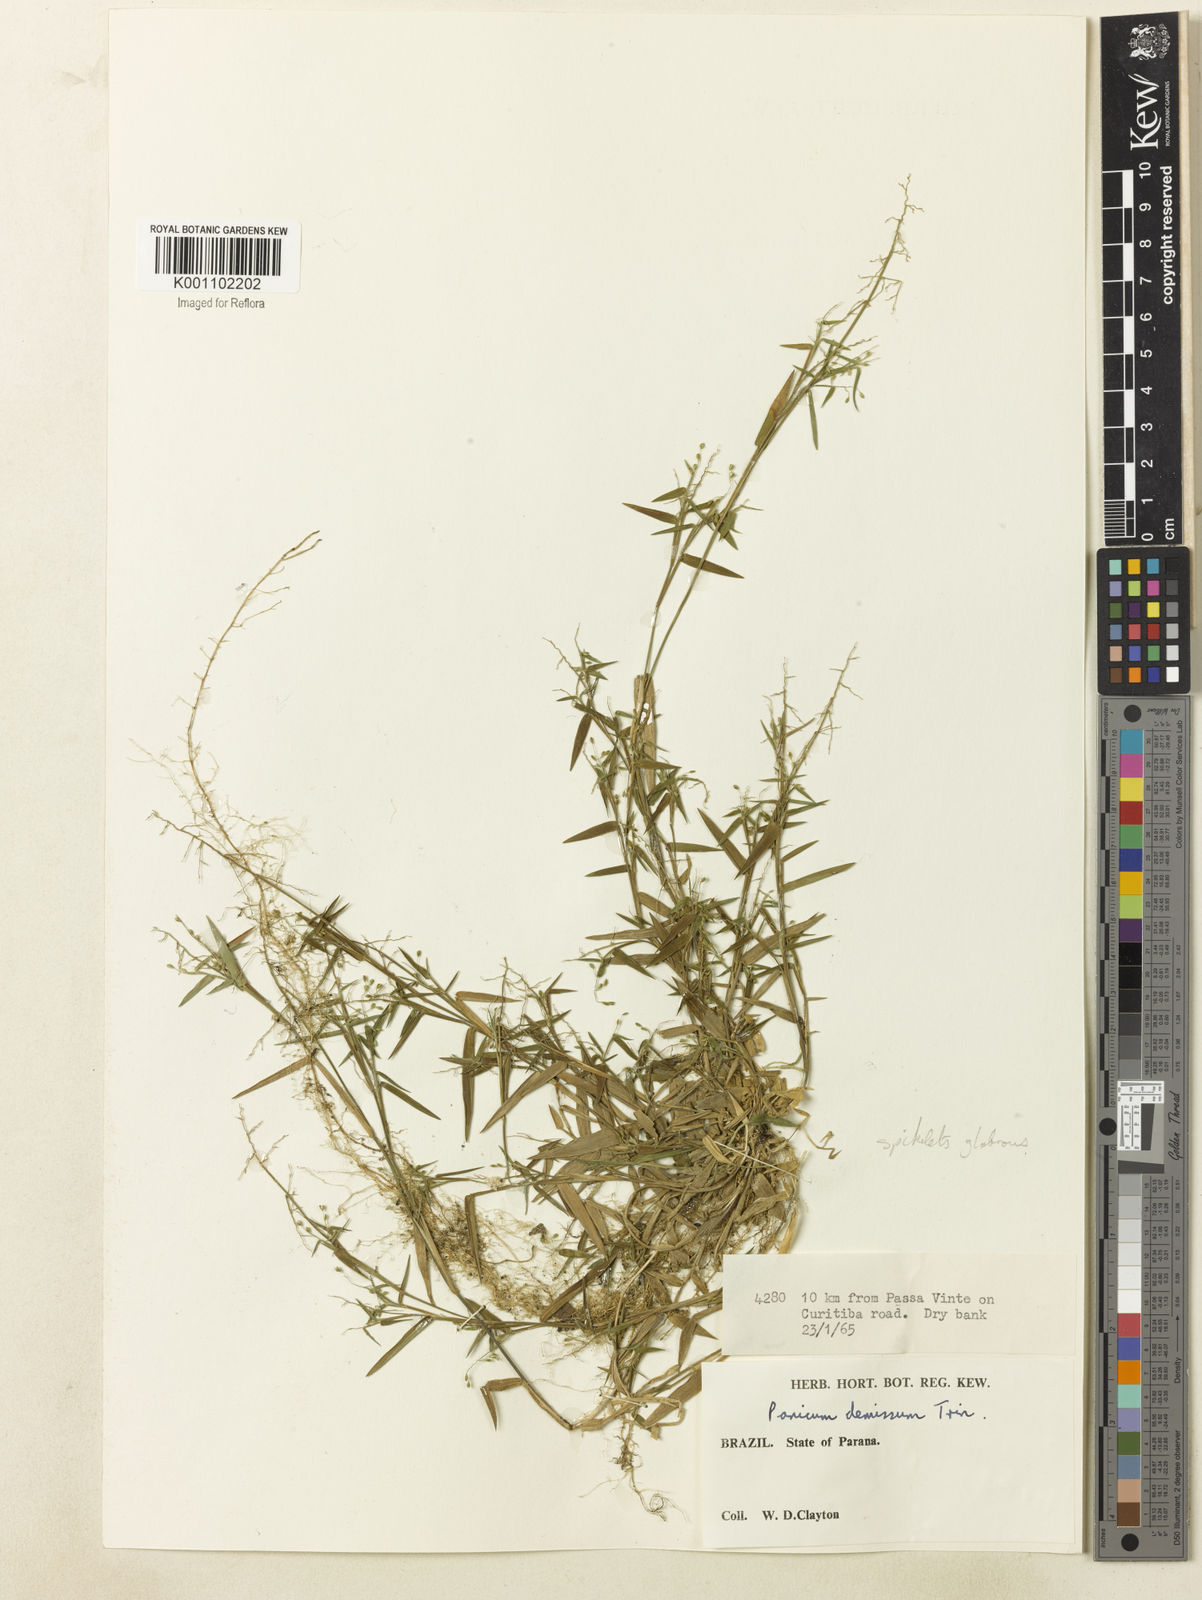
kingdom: Plantae
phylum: Tracheophyta
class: Liliopsida
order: Poales
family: Poaceae
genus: Dichanthelium
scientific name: Dichanthelium sabulorum
